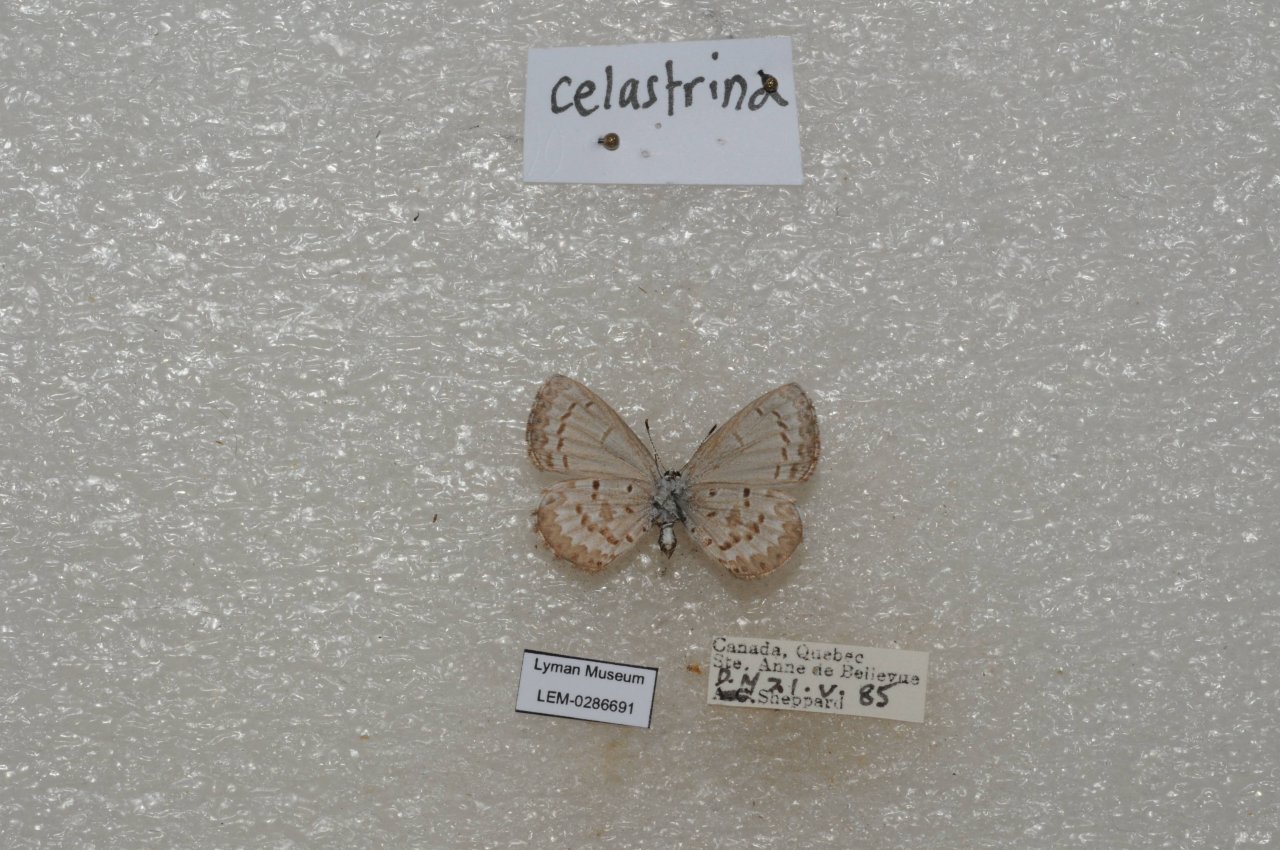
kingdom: Animalia
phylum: Arthropoda
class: Insecta
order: Lepidoptera
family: Lycaenidae
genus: Celastrina
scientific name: Celastrina lucia
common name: Northern Spring Azure
